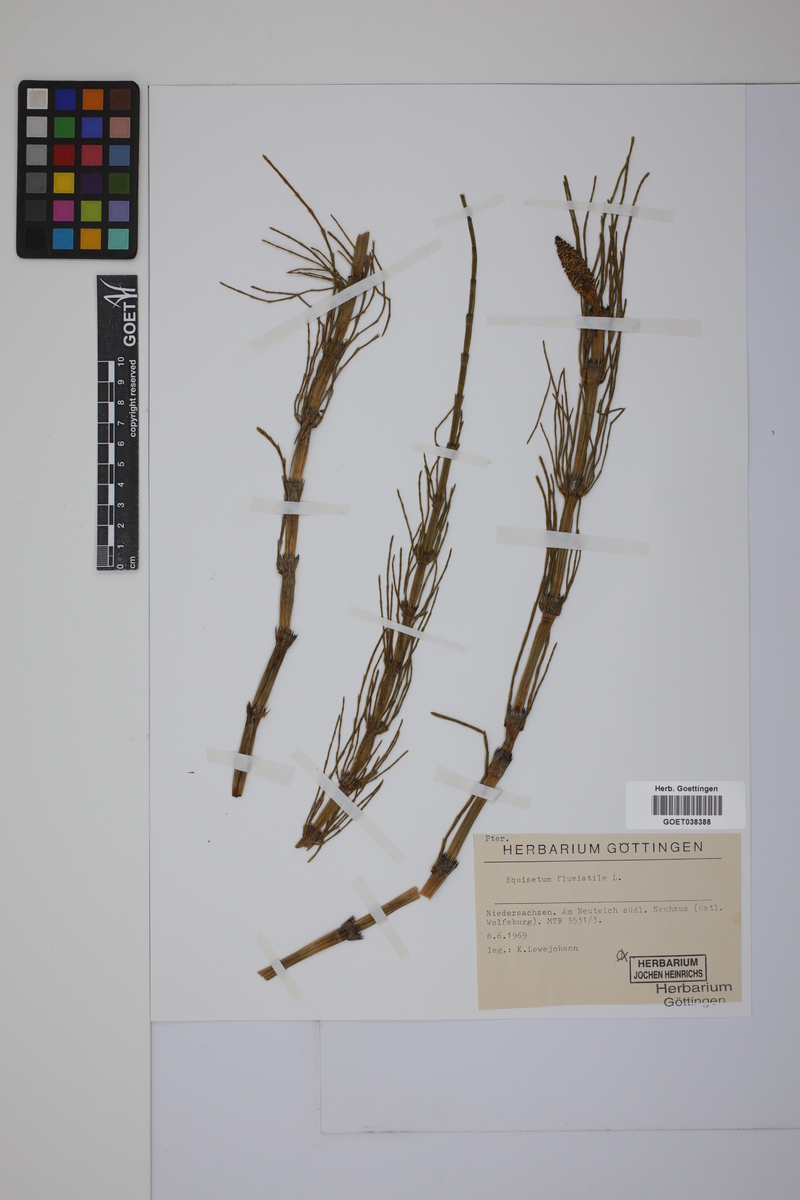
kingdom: Plantae
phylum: Tracheophyta
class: Polypodiopsida
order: Equisetales
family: Equisetaceae
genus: Equisetum
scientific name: Equisetum fluviatile
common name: Water horsetail
